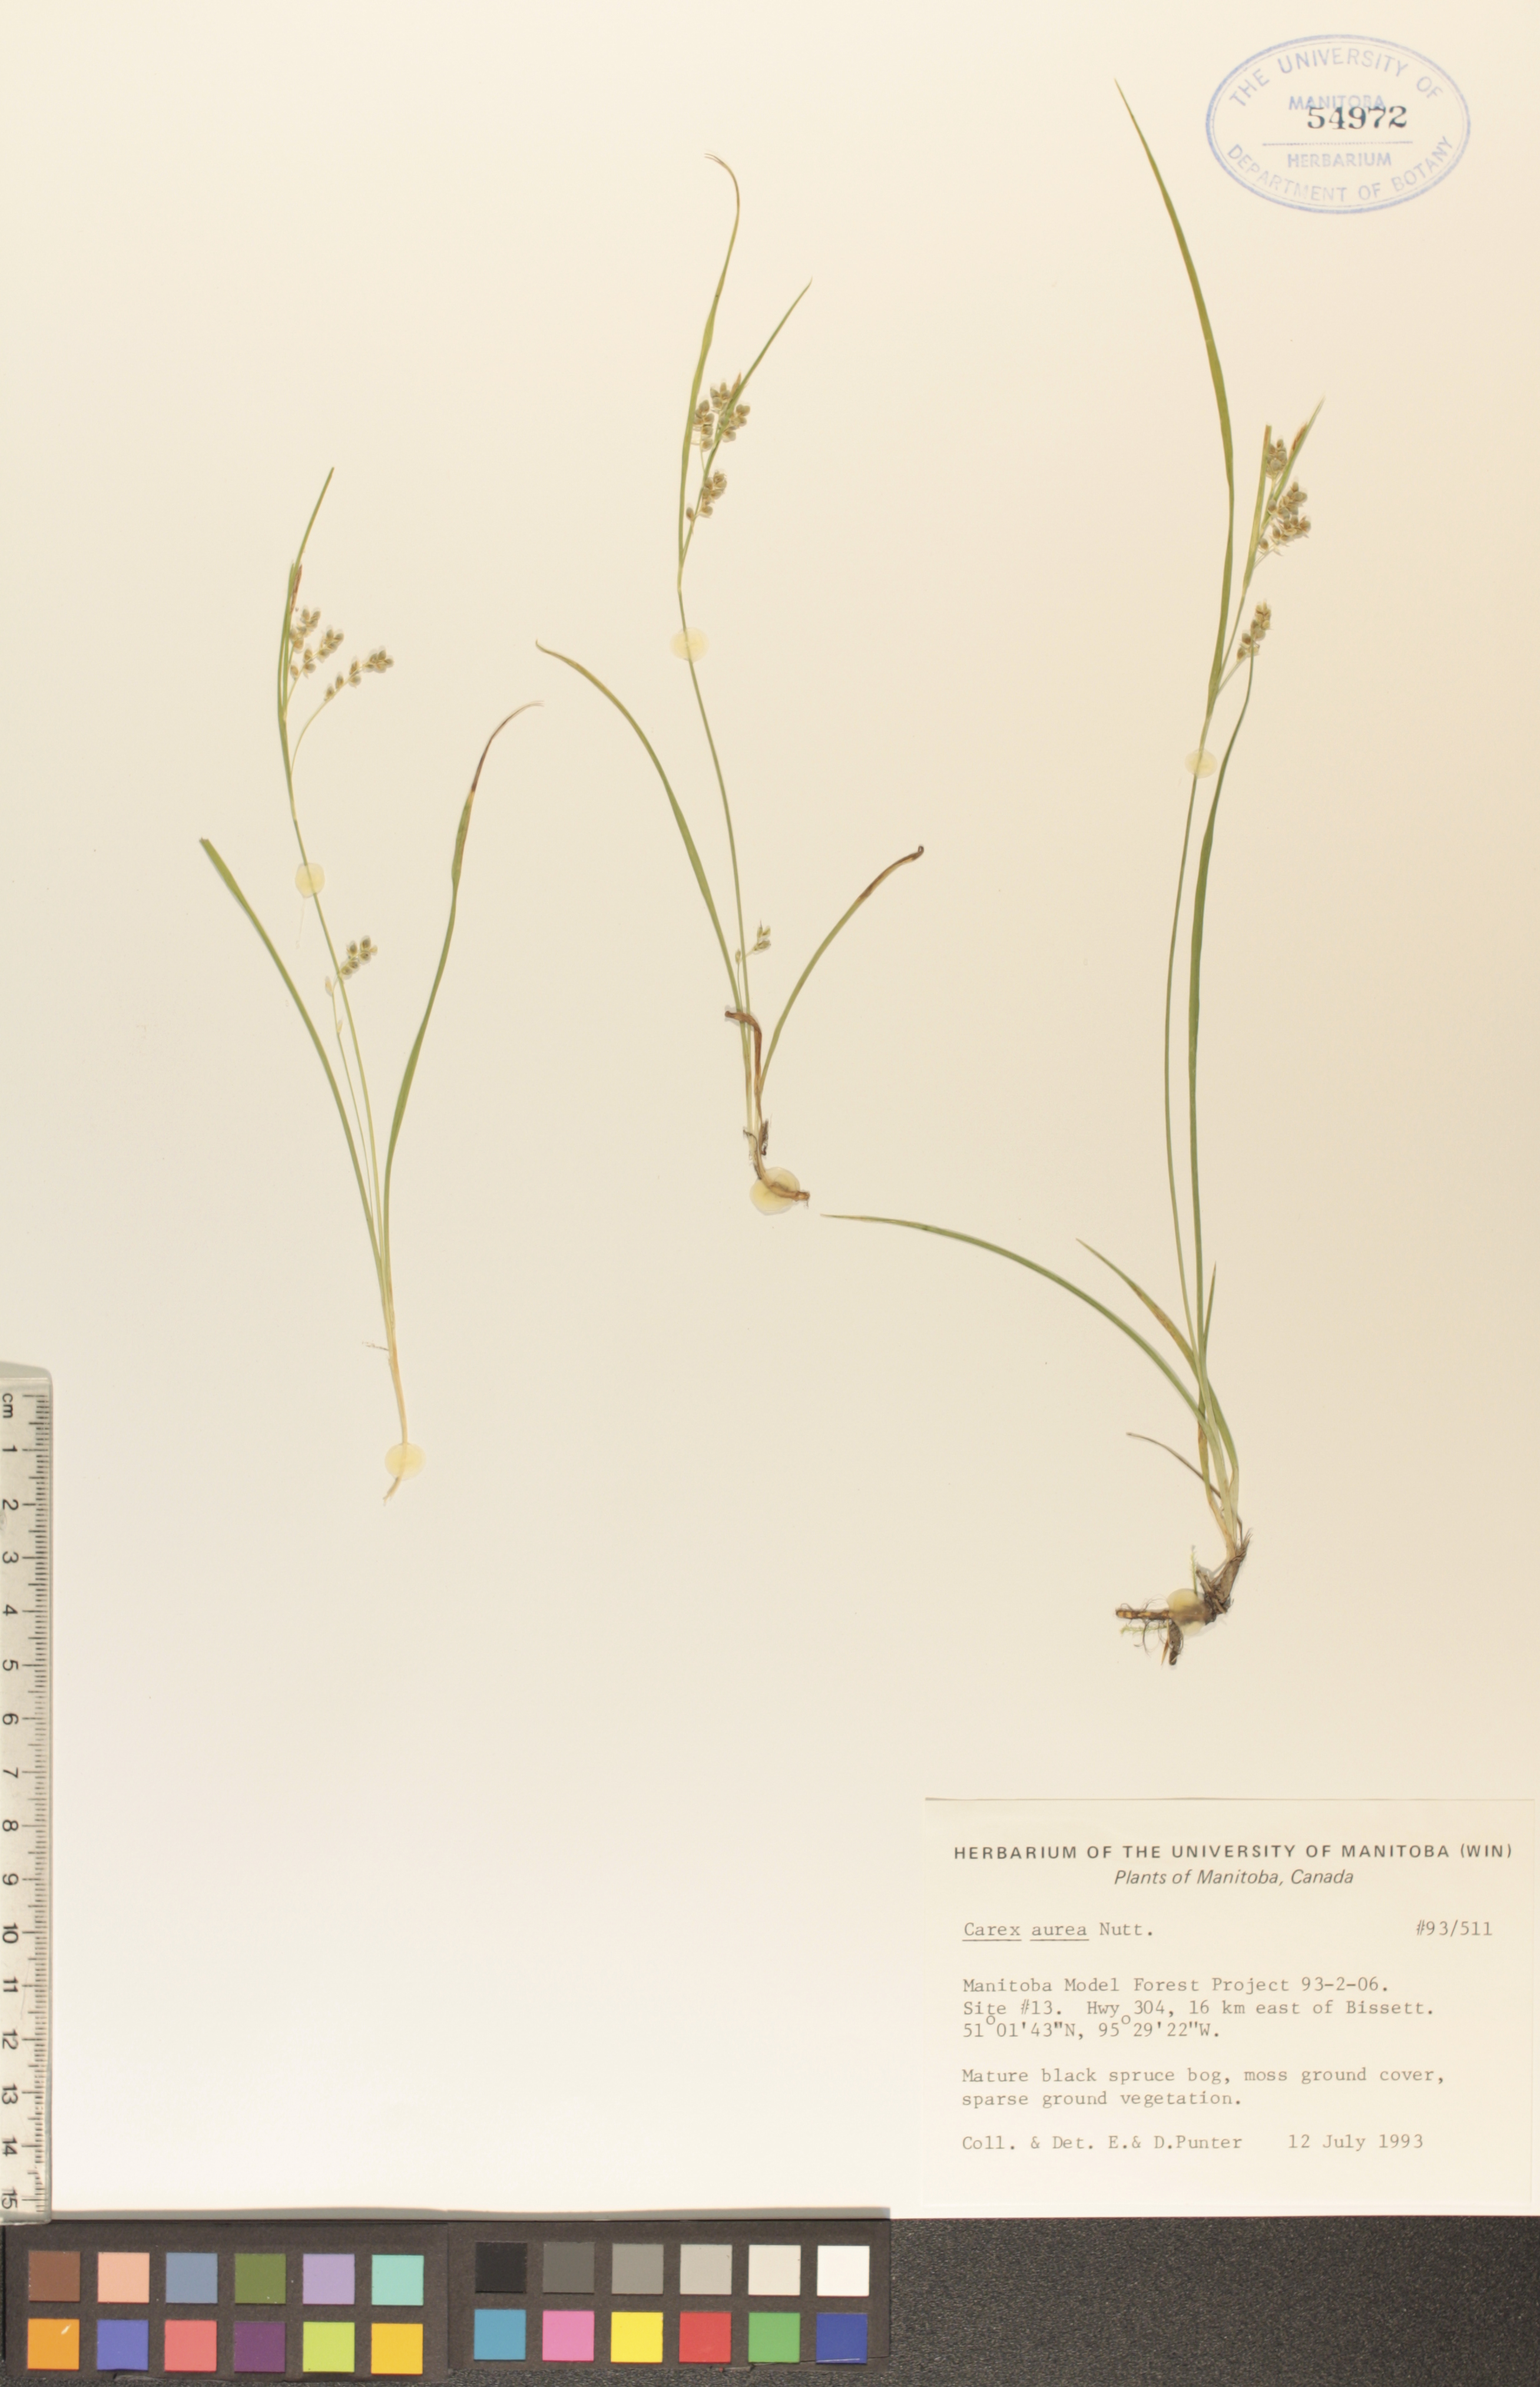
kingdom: Plantae
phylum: Tracheophyta
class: Liliopsida
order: Poales
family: Cyperaceae
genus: Carex
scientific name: Carex aurea
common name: Golden sedge
